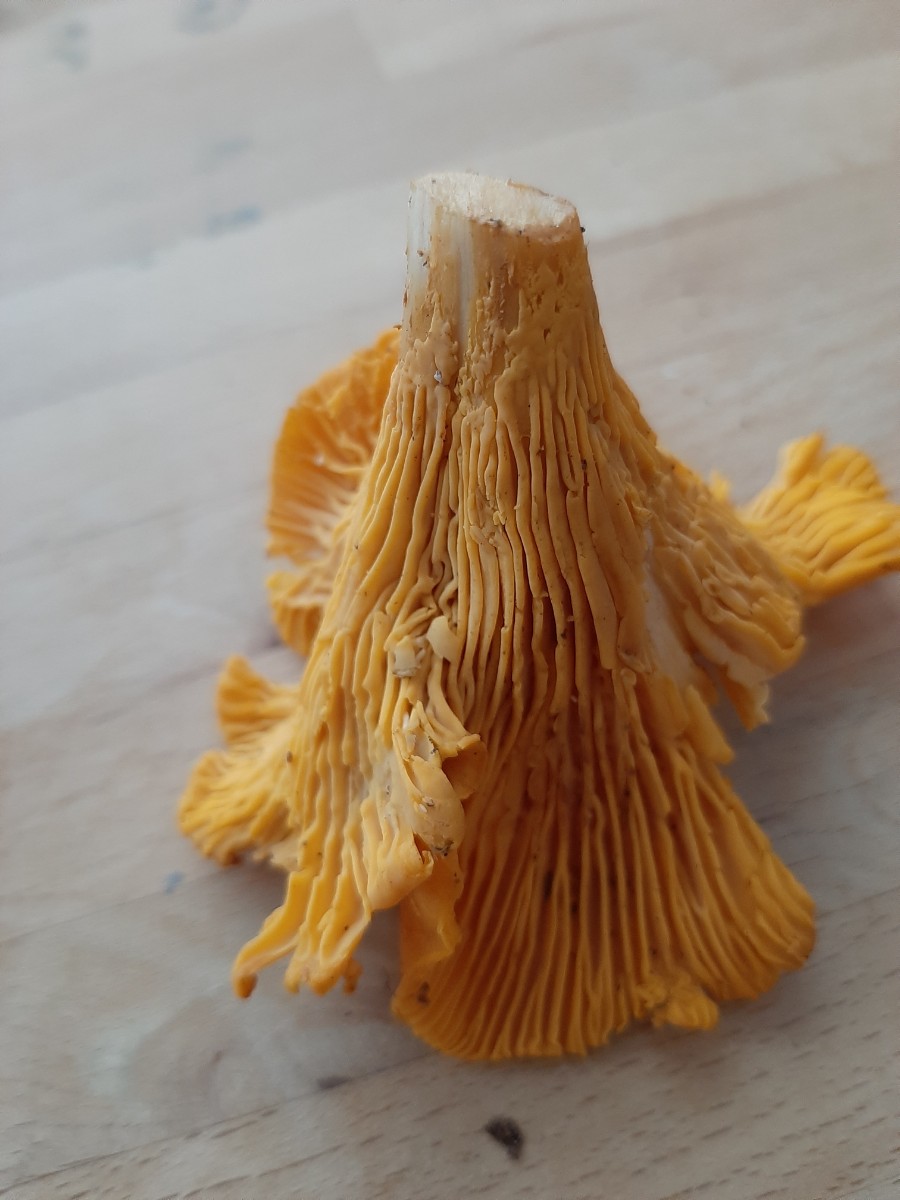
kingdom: Fungi
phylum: Basidiomycota
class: Agaricomycetes
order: Cantharellales
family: Hydnaceae
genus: Cantharellus
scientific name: Cantharellus cibarius
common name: almindelig kantarel
